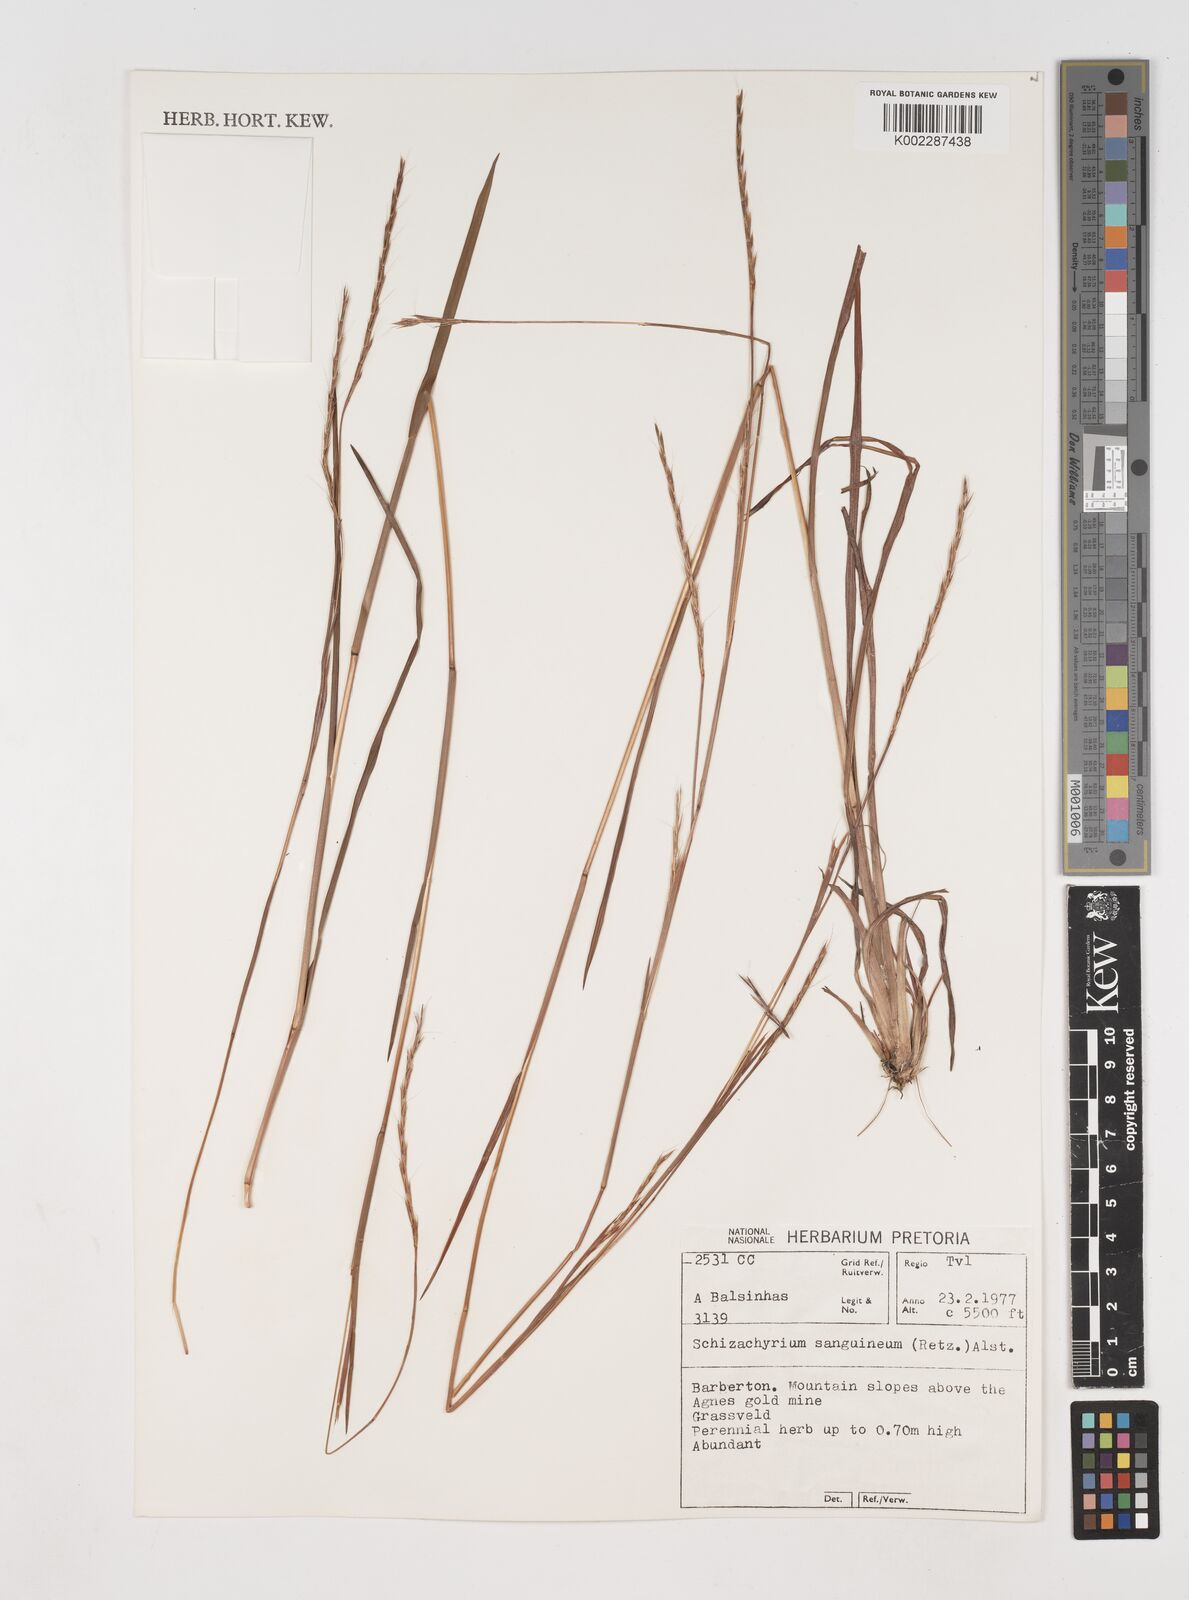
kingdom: Plantae
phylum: Tracheophyta
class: Liliopsida
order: Poales
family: Poaceae
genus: Schizachyrium
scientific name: Schizachyrium sanguineum
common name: Crimson bluestem
